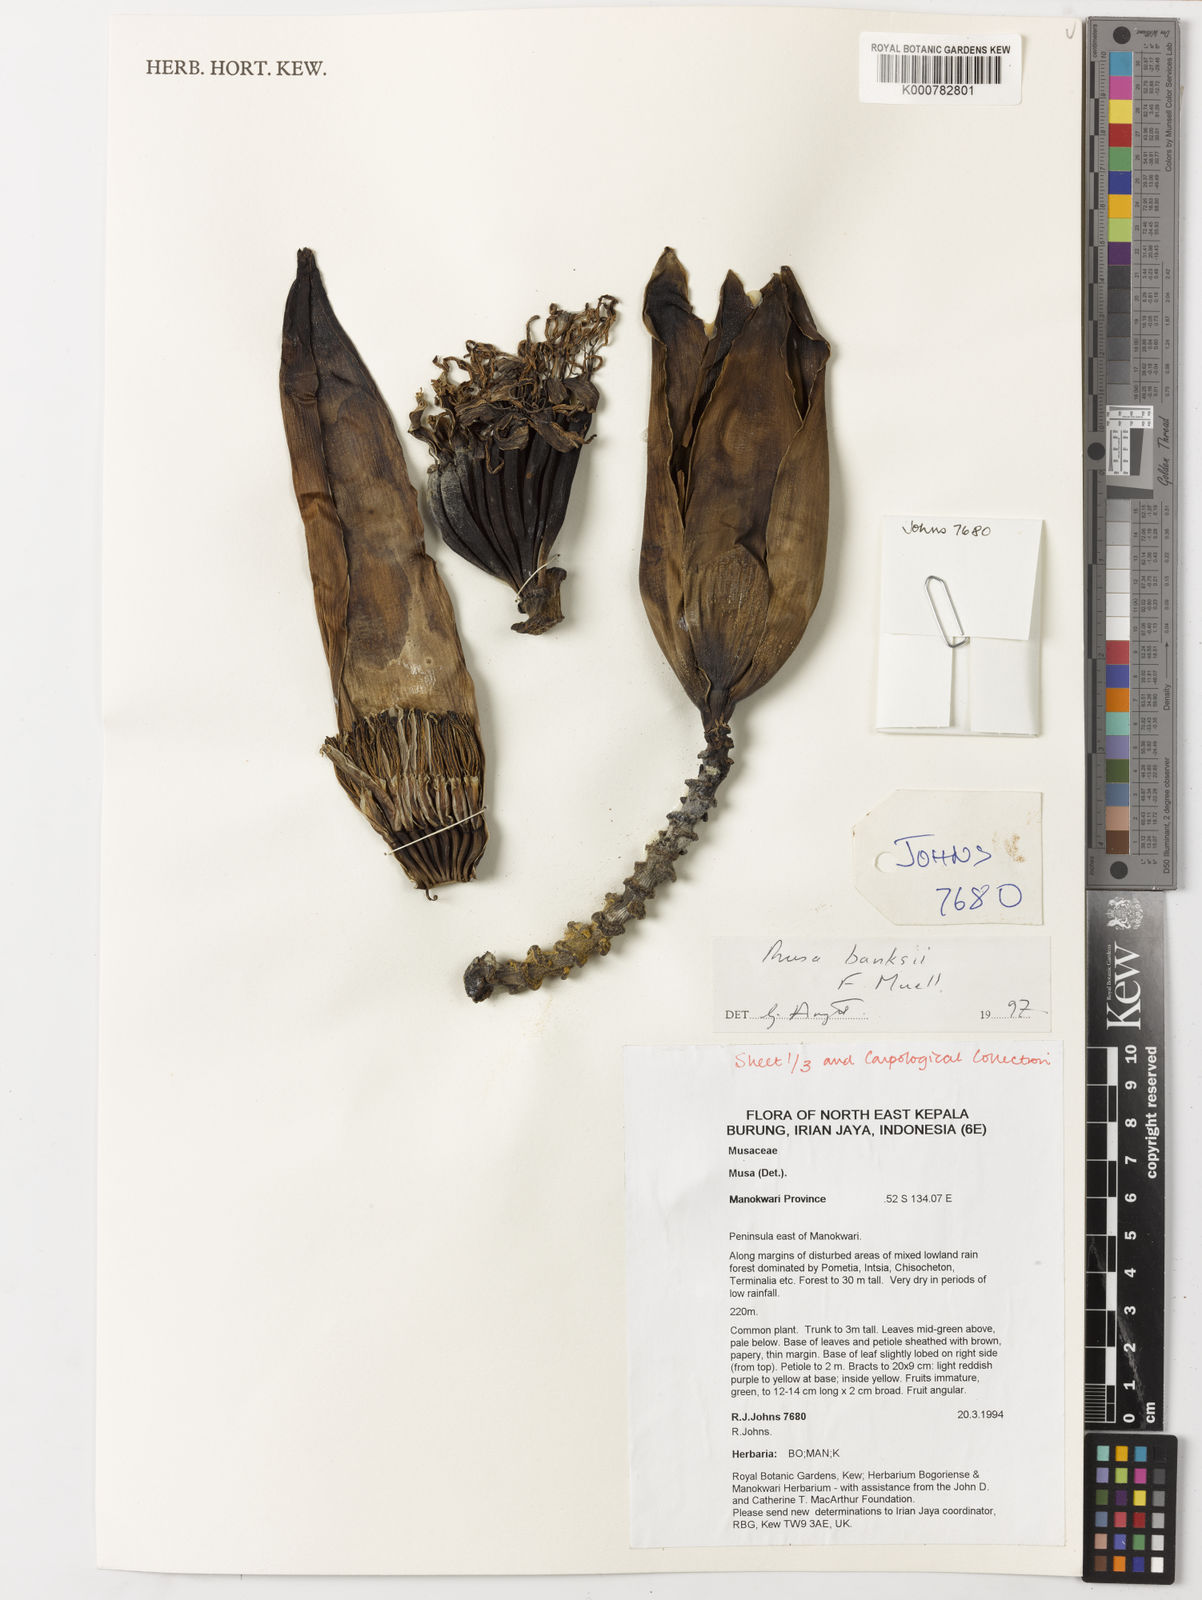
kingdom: Plantae
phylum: Tracheophyta
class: Liliopsida
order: Zingiberales
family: Musaceae
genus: Musa
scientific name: Musa banksii
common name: Maroon-stemmed banana
